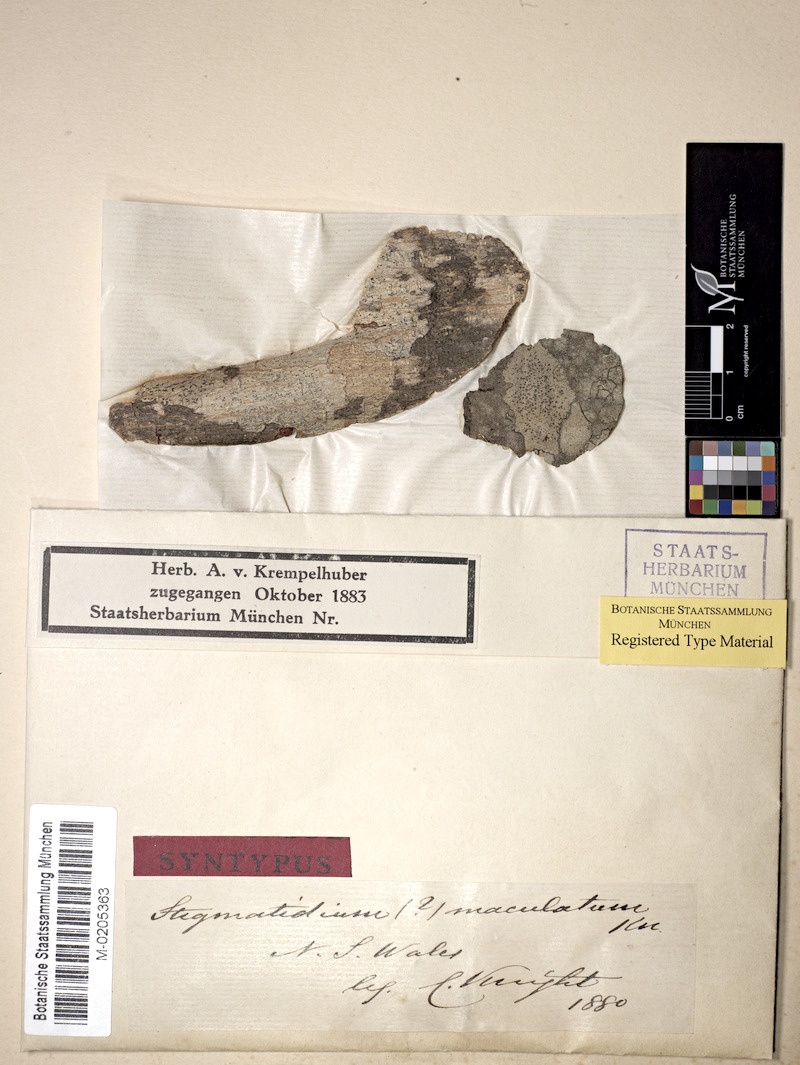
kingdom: Fungi
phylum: Ascomycota
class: Arthoniomycetes
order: Arthoniales
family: Roccellaceae
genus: Chiodecton
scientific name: Chiodecton maculatum
